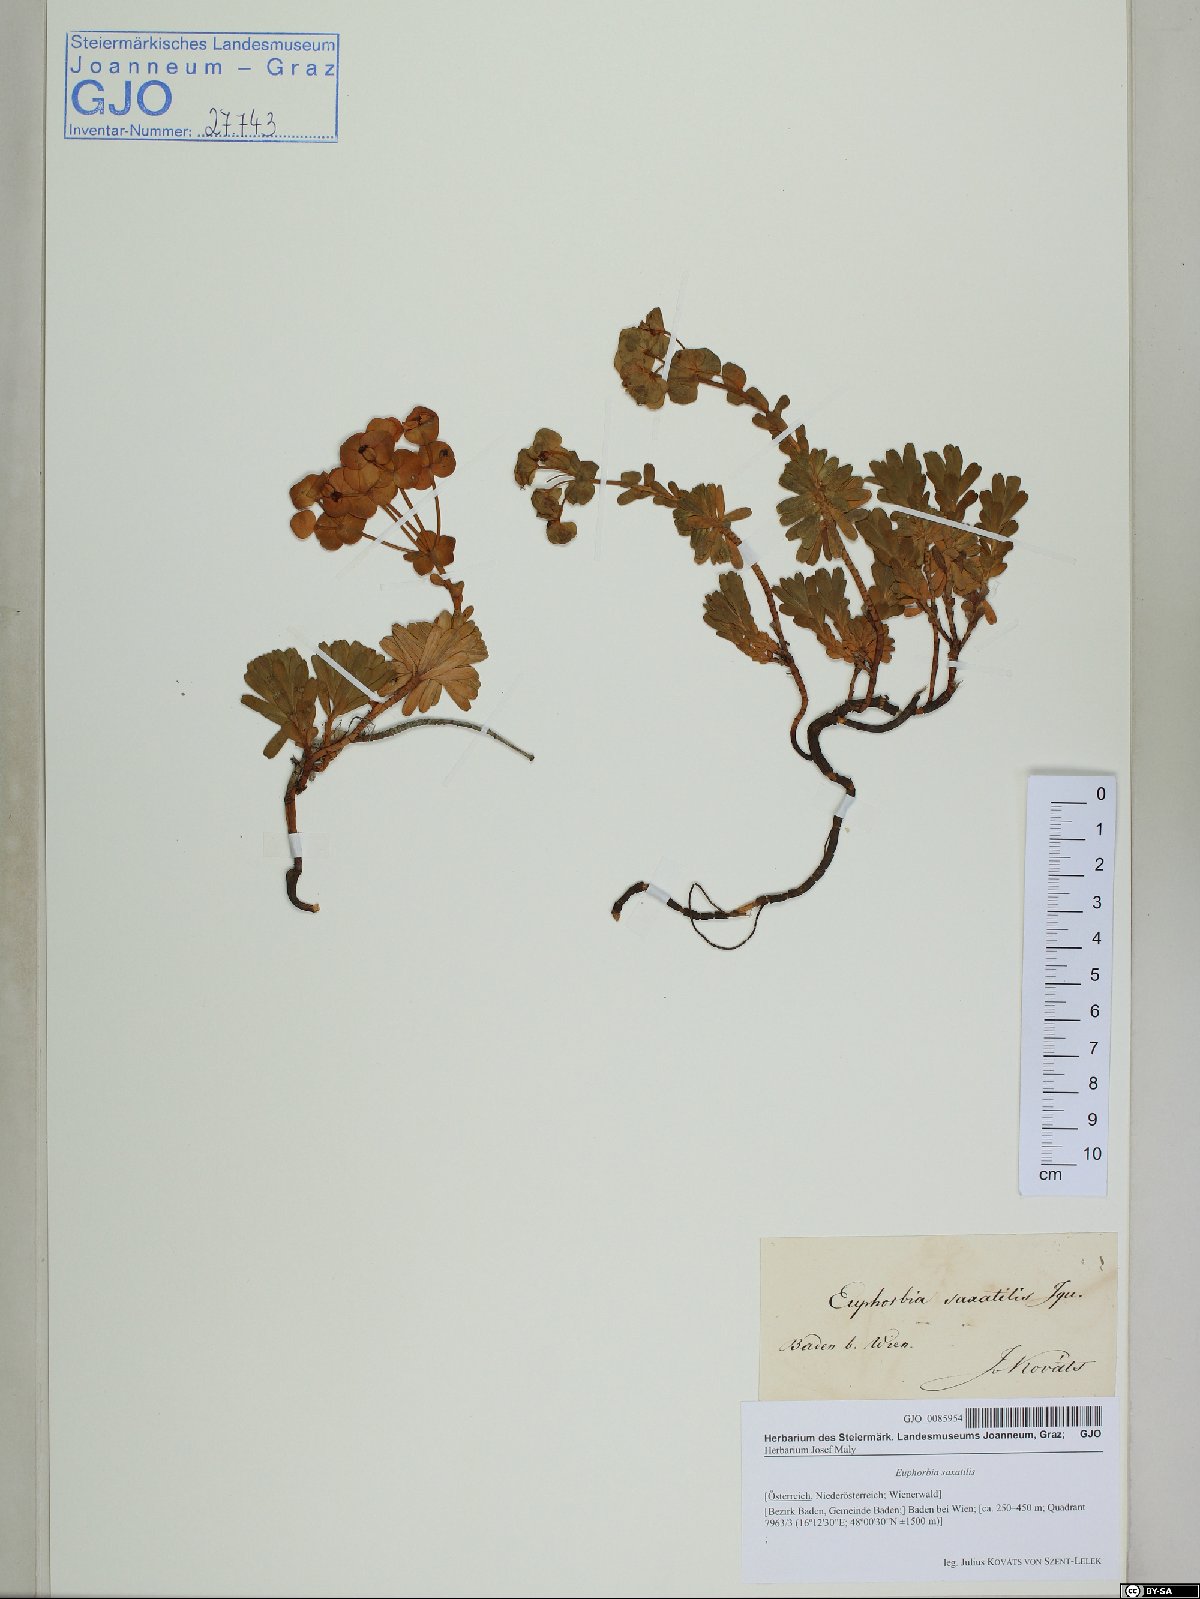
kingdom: Plantae
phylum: Tracheophyta
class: Magnoliopsida
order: Malpighiales
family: Euphorbiaceae
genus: Euphorbia
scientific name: Euphorbia saxatilis
